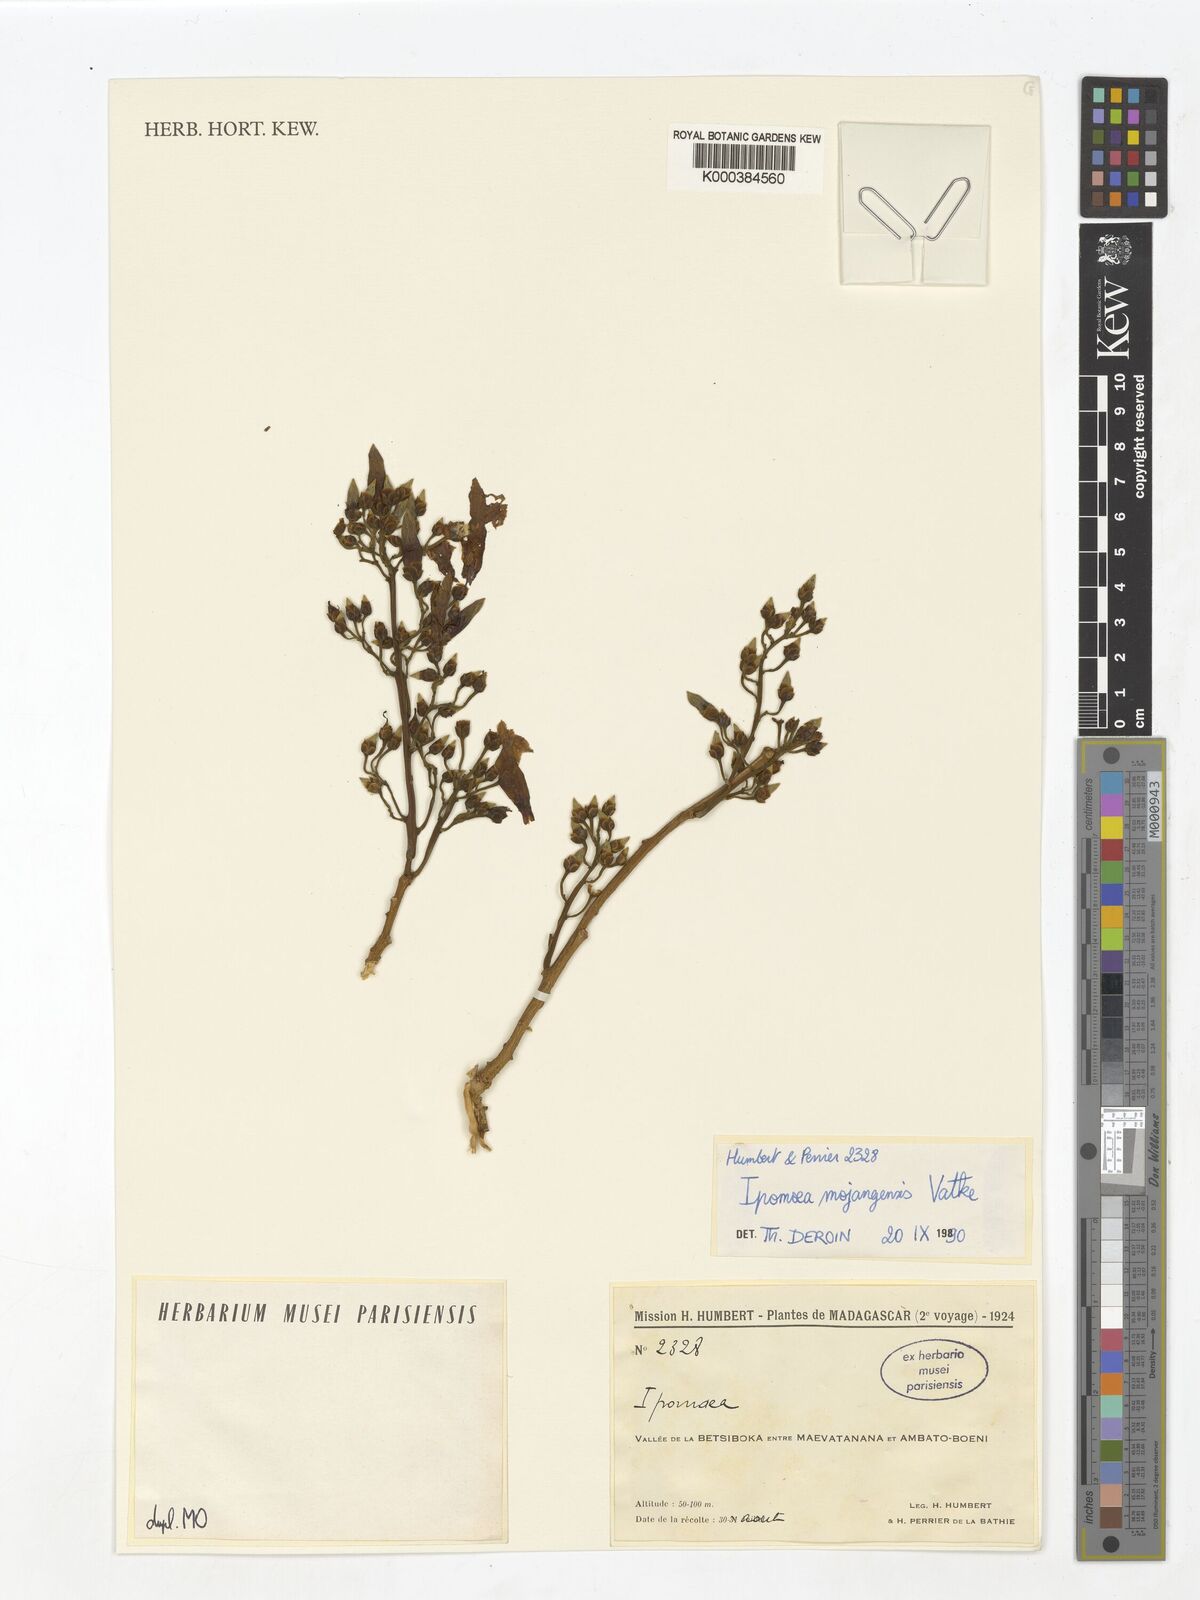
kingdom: Plantae
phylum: Tracheophyta
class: Magnoliopsida
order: Solanales
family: Convolvulaceae
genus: Stictocardia
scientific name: Stictocardia mojangensis
